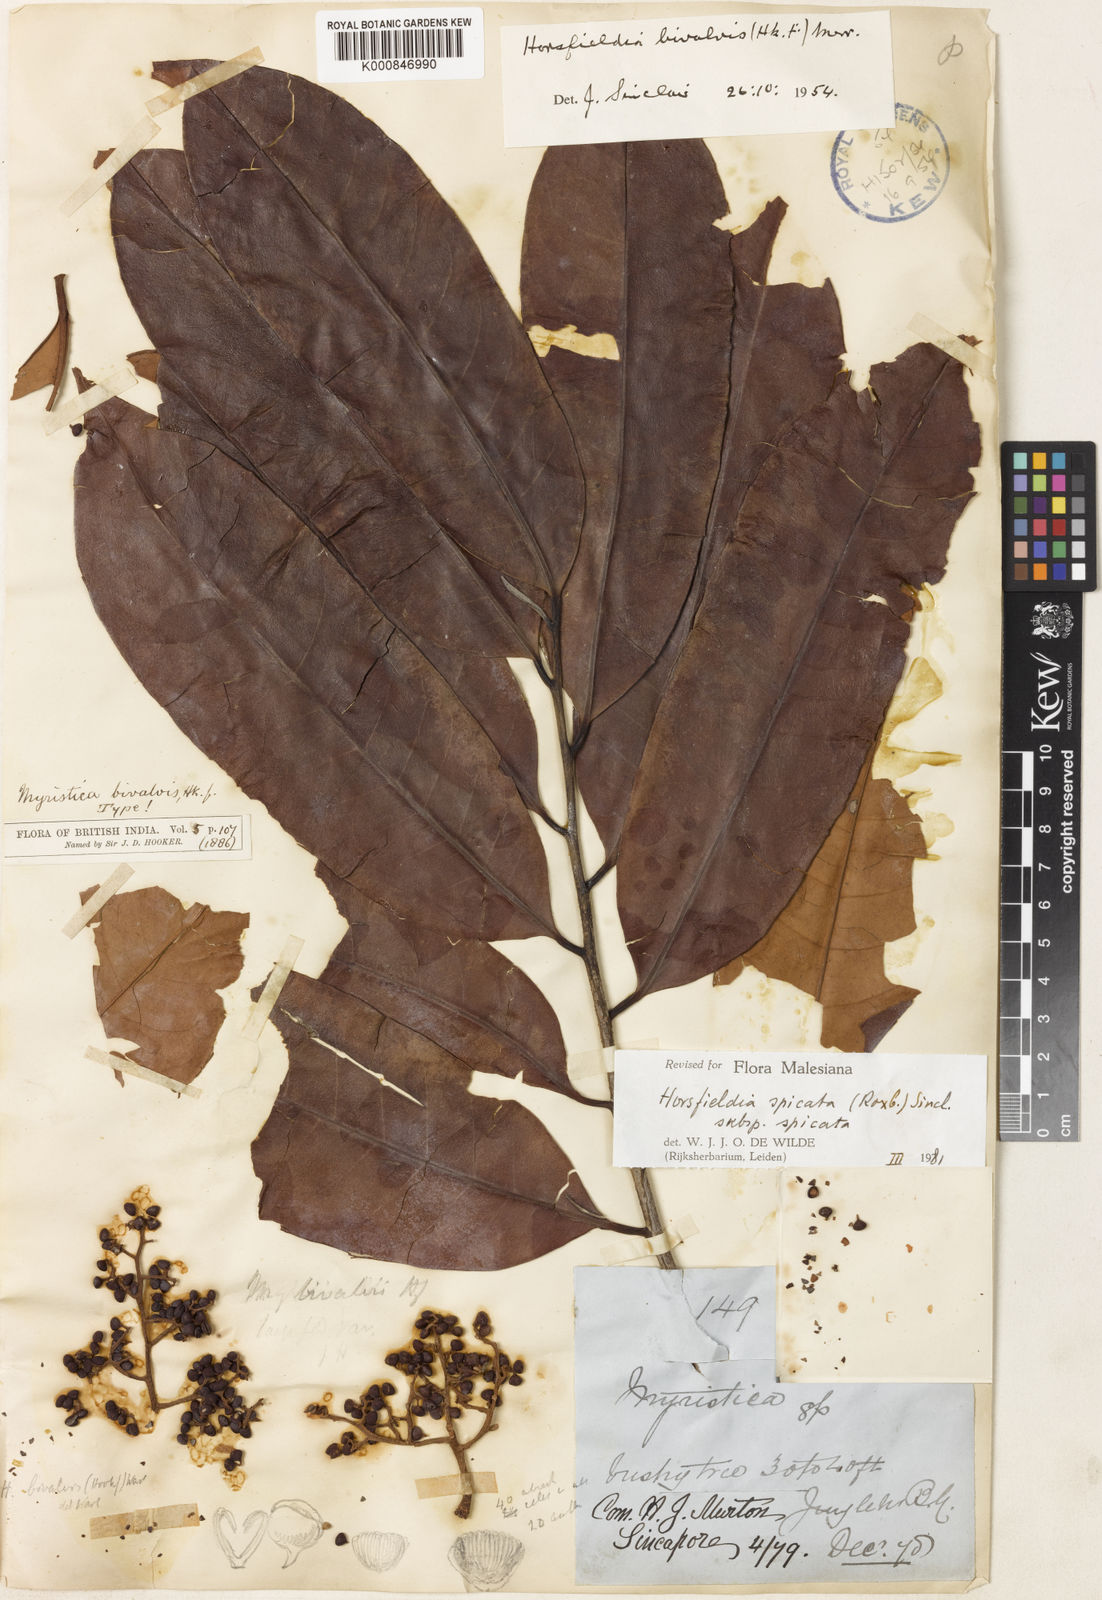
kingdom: Plantae
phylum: Tracheophyta
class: Magnoliopsida
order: Magnoliales
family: Myristicaceae
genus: Horsfieldia
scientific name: Horsfieldia parviflora
